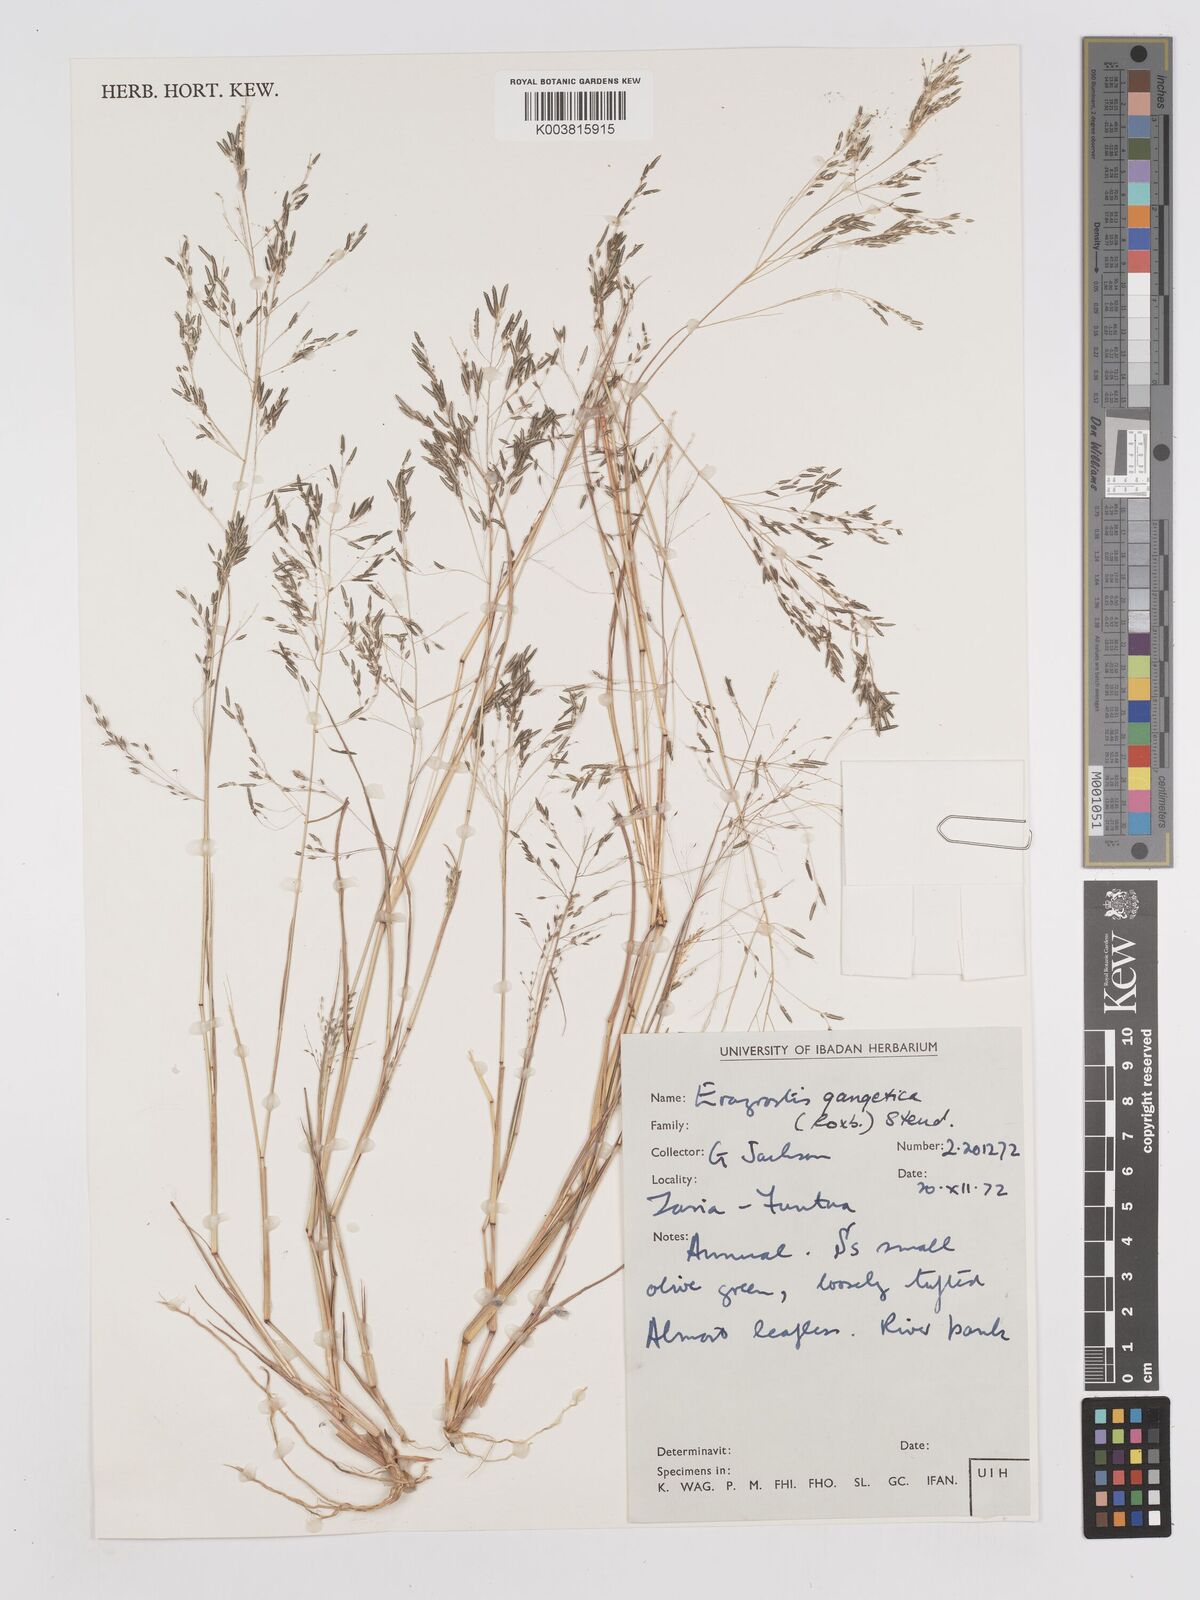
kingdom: Plantae
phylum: Tracheophyta
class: Liliopsida
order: Poales
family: Poaceae
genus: Eragrostis
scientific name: Eragrostis gangetica
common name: Slimflower lovegrass
